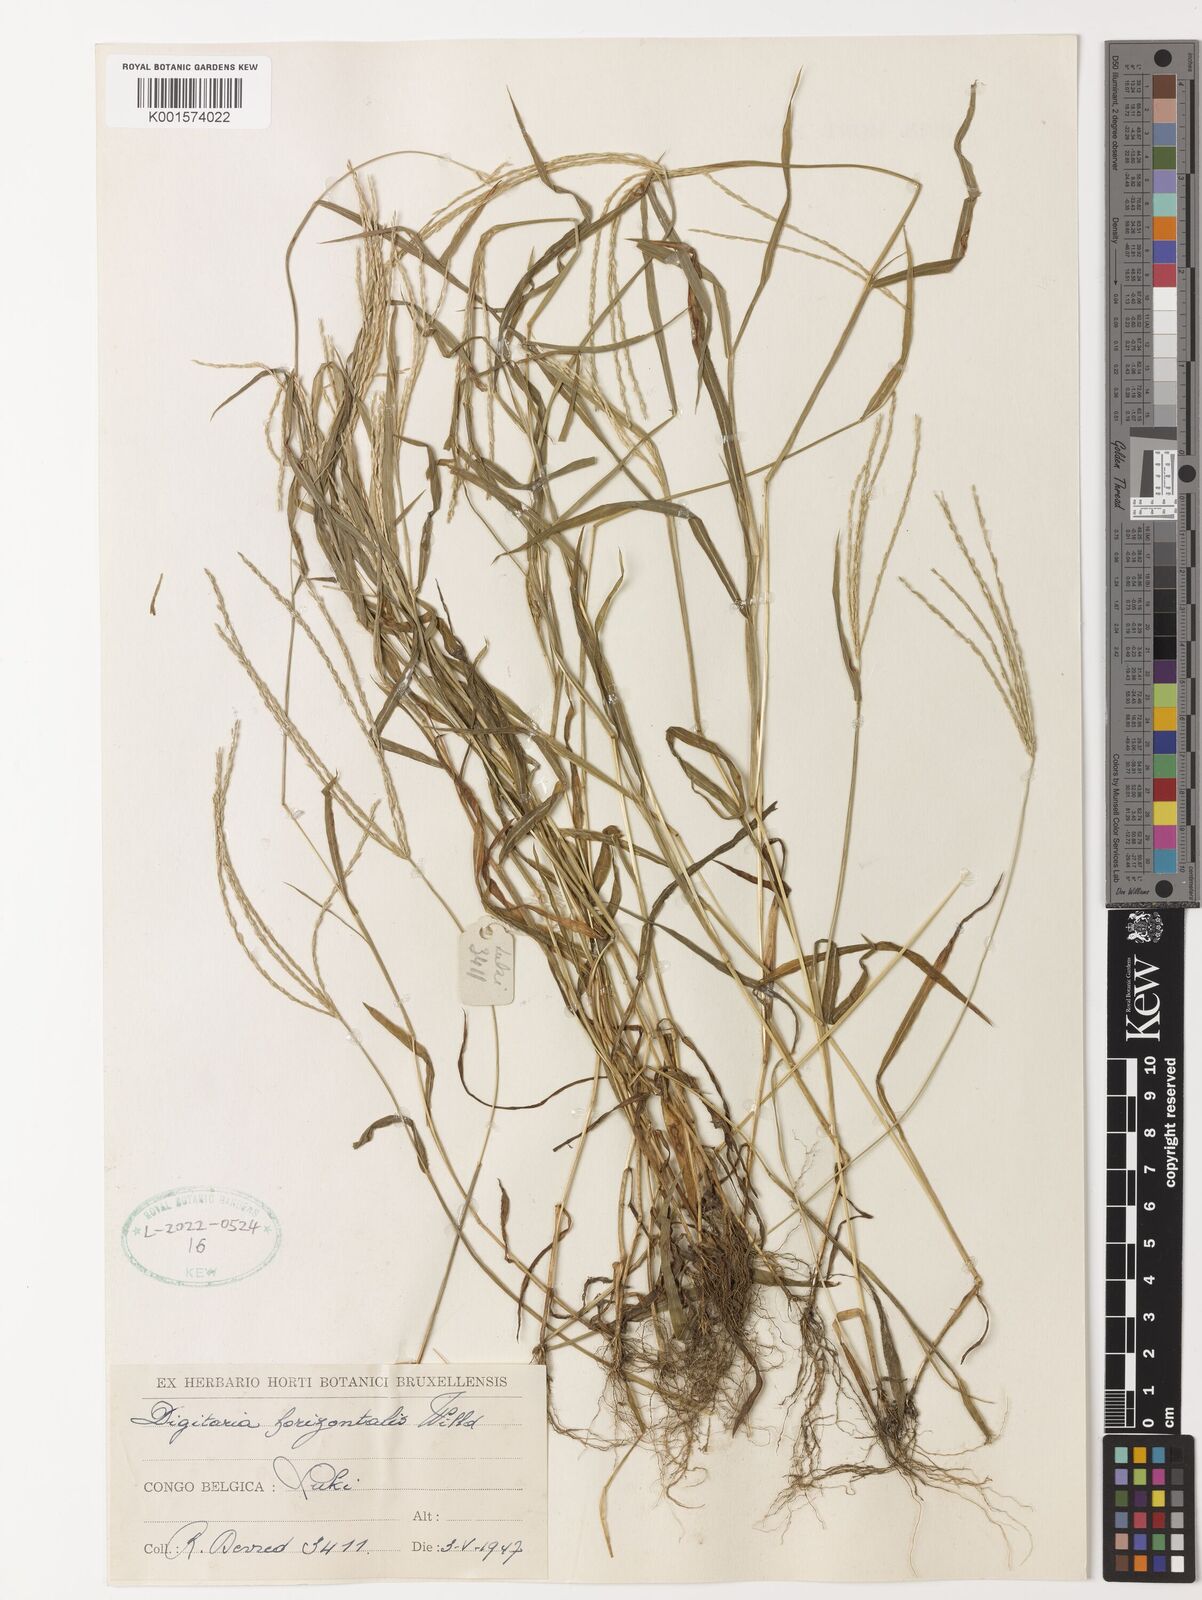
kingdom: Plantae
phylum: Tracheophyta
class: Liliopsida
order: Poales
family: Poaceae
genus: Digitaria
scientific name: Digitaria horizontalis
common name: Jamaican crabgrass
